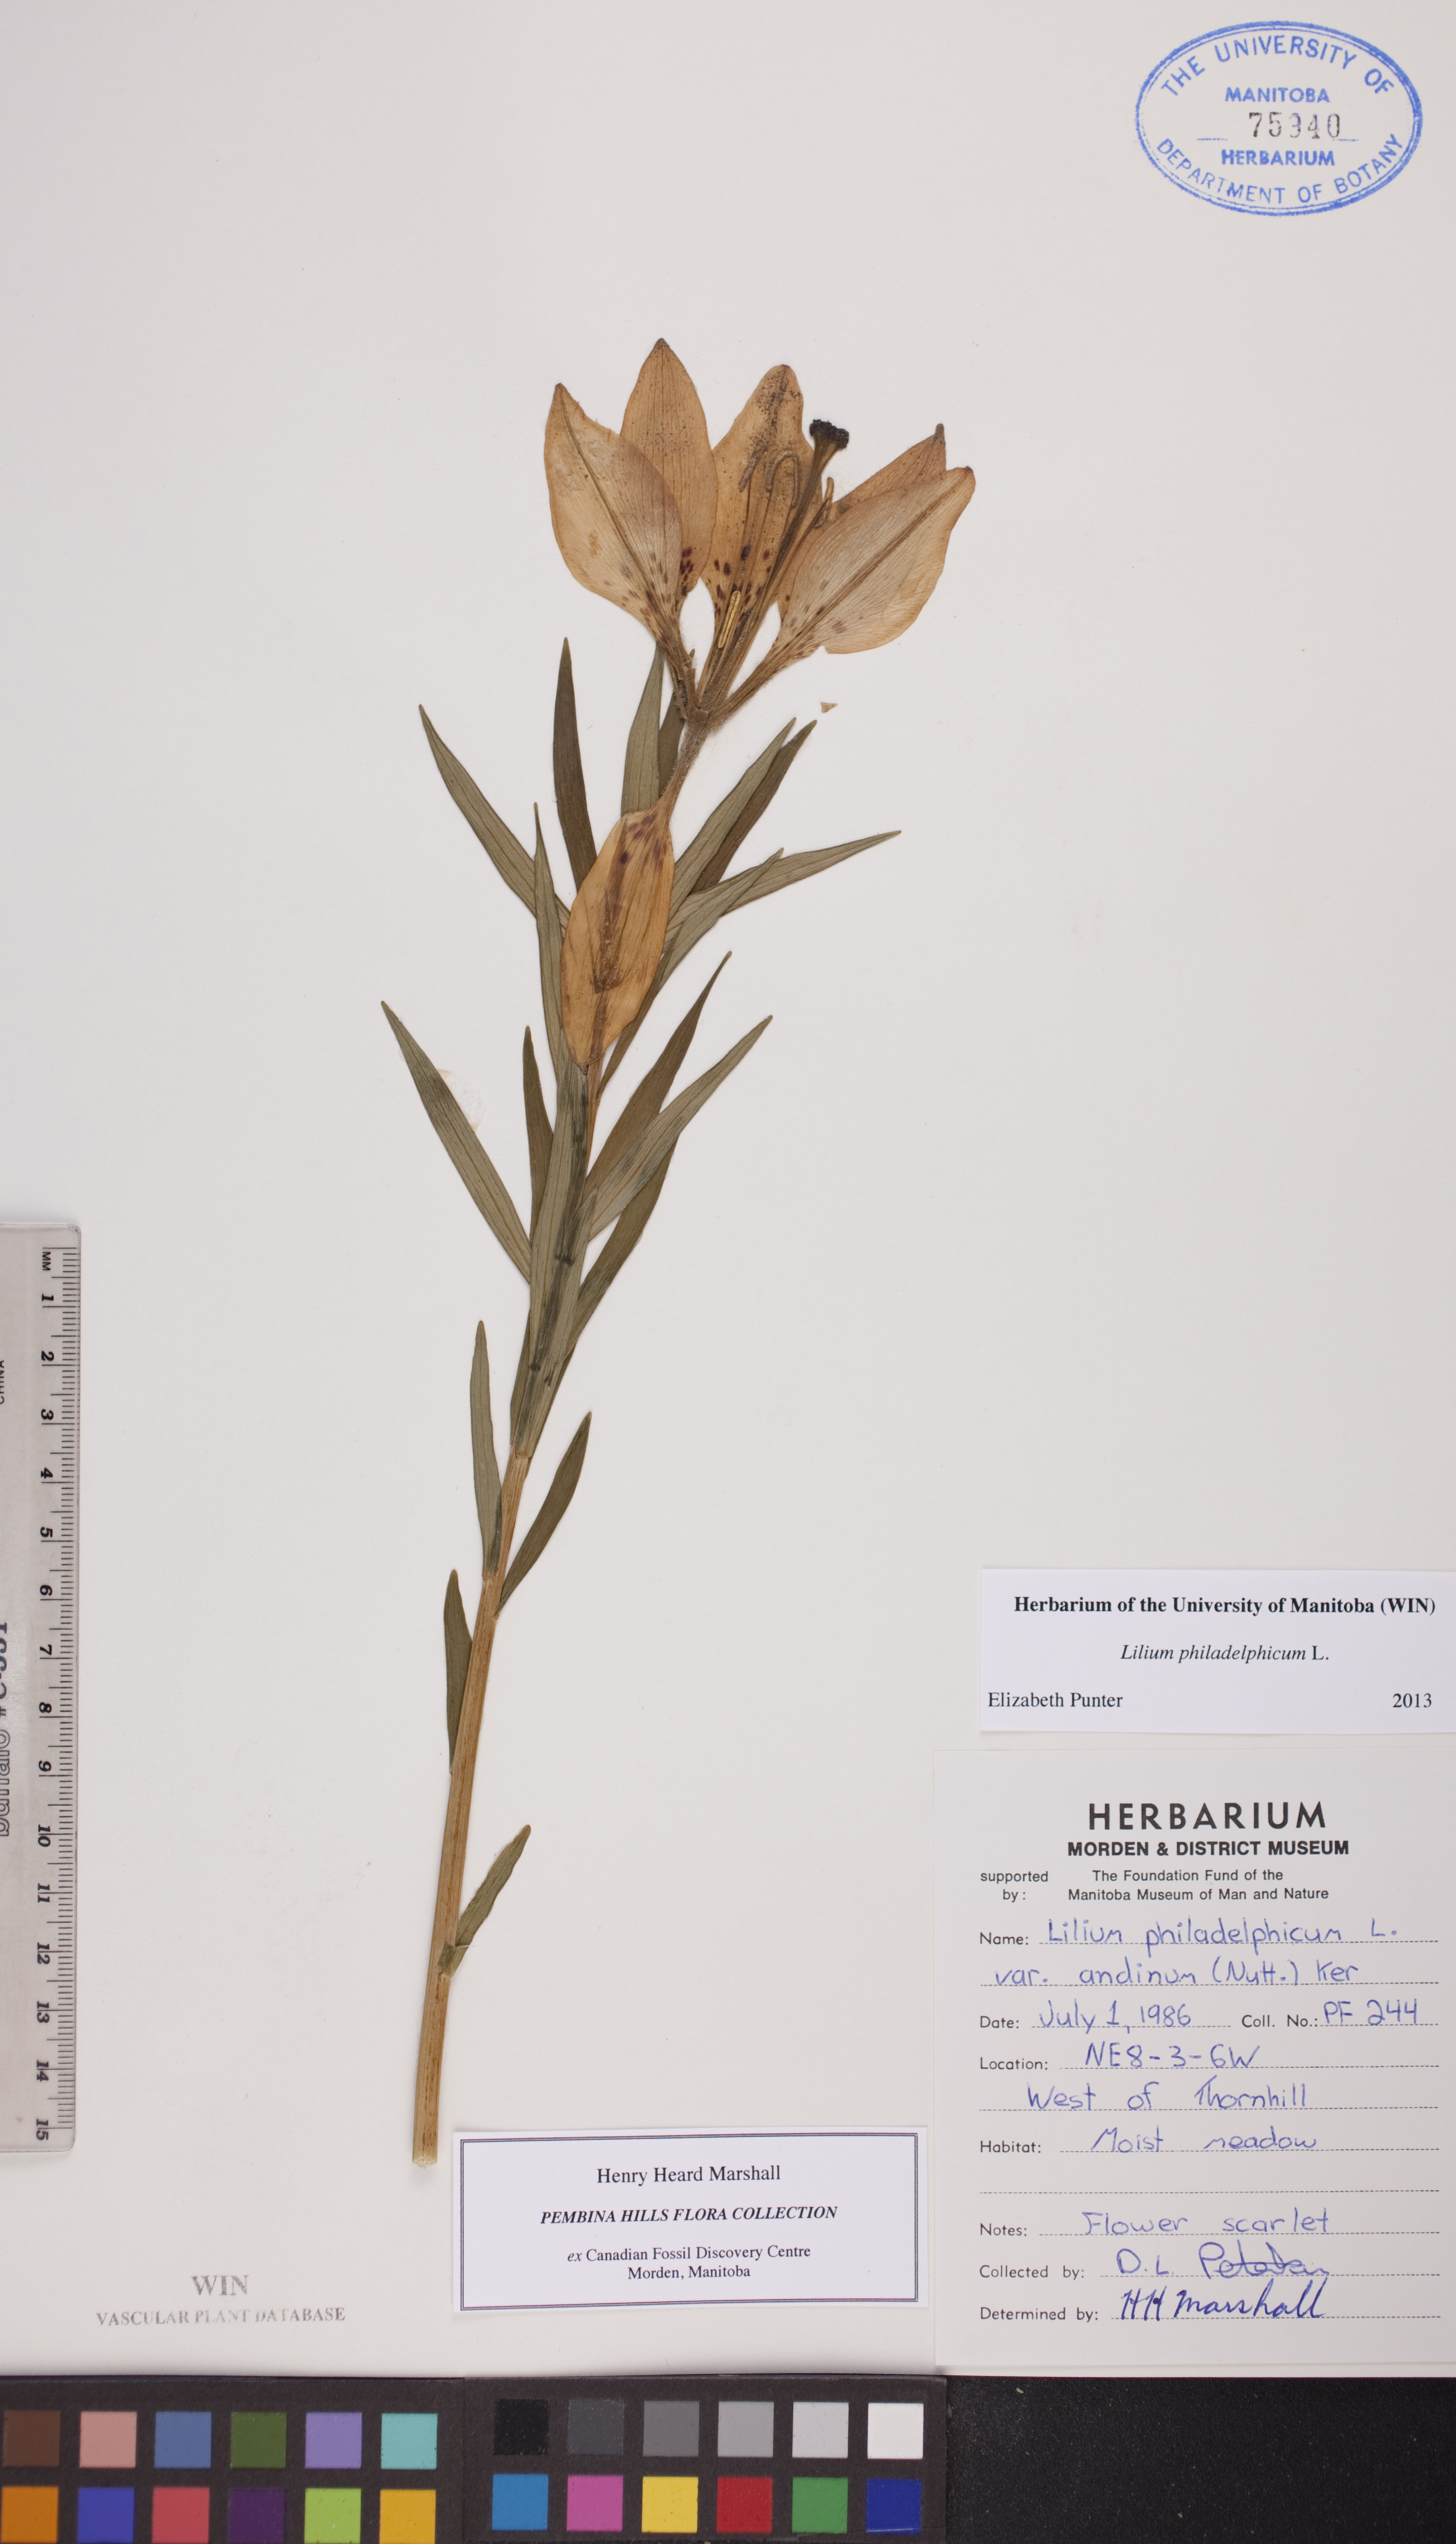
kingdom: Plantae
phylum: Tracheophyta
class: Liliopsida
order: Liliales
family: Liliaceae
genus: Lilium
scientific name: Lilium philadelphicum
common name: Red lily
